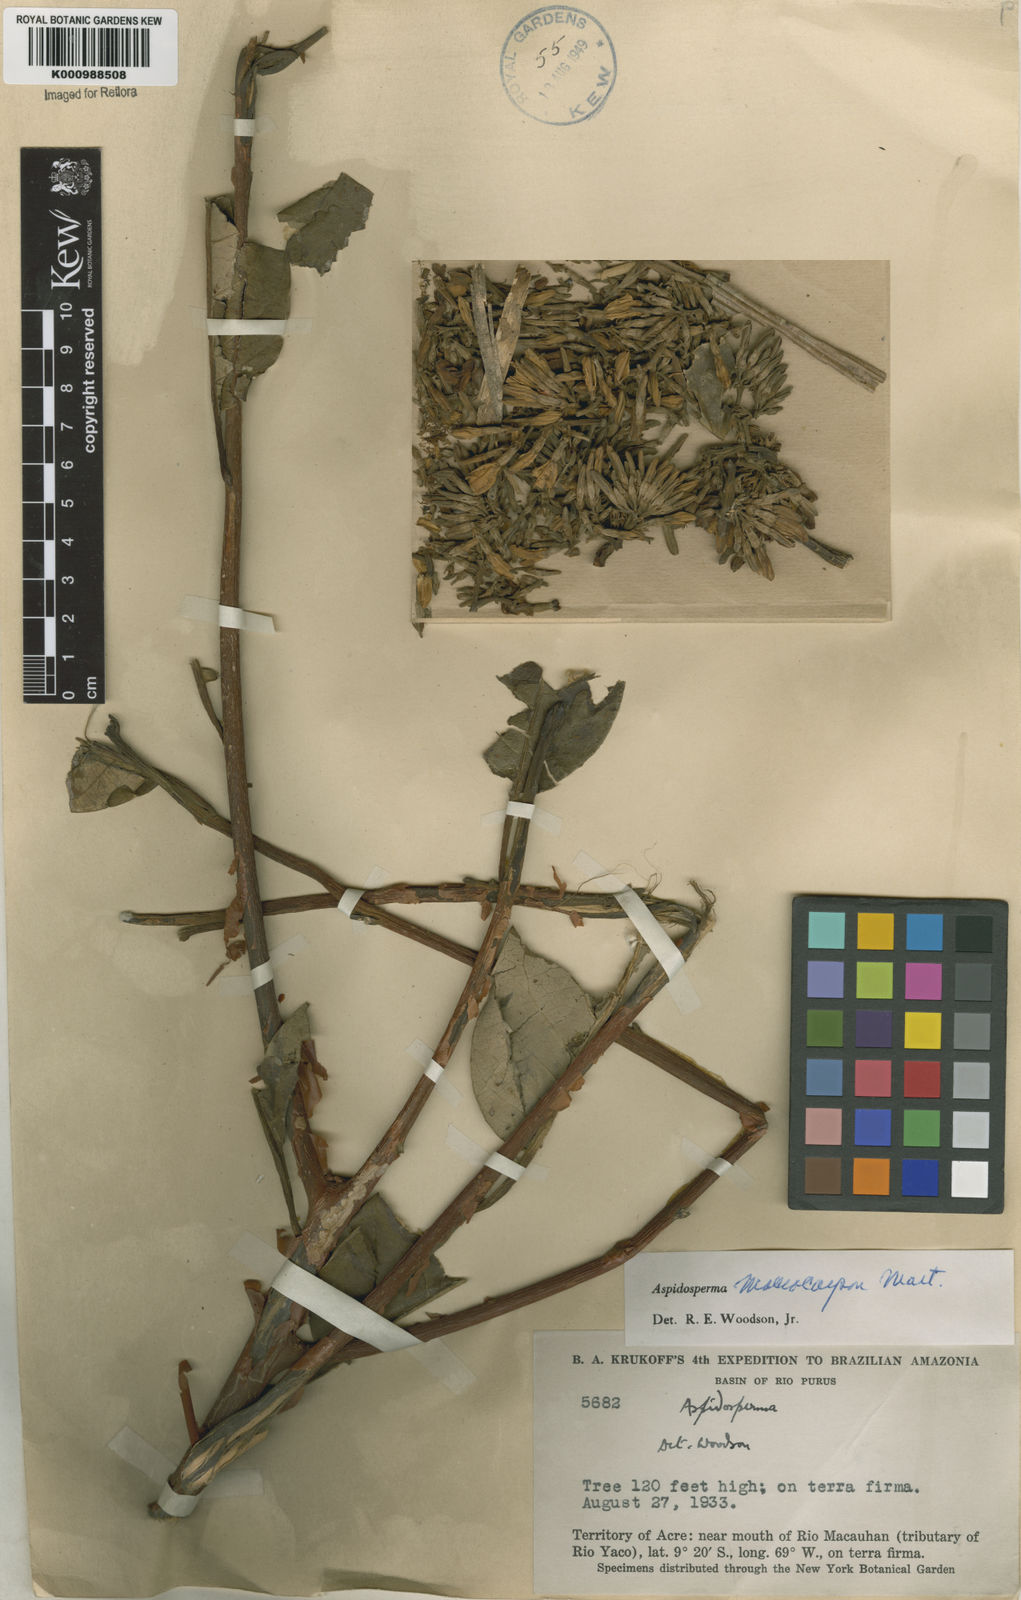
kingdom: Plantae
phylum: Tracheophyta
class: Magnoliopsida
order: Gentianales
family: Apocynaceae
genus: Aspidosperma
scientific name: Aspidosperma macrocarpon
